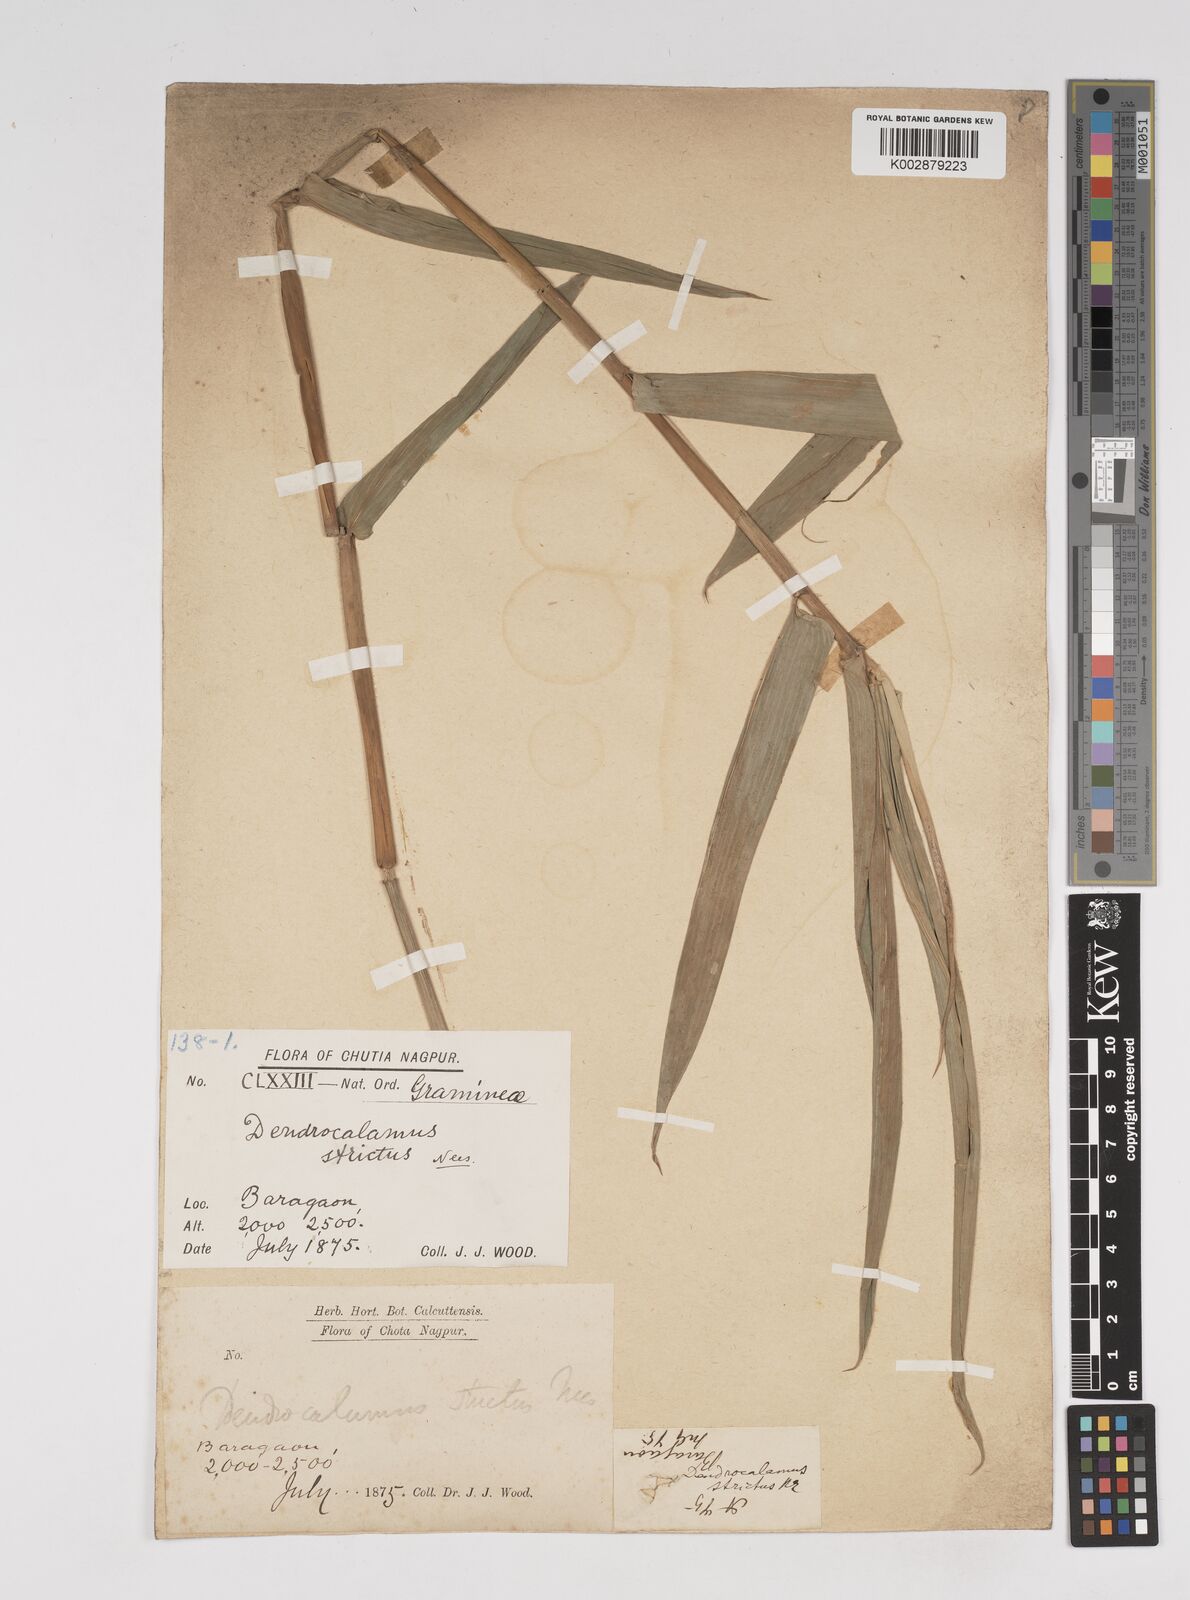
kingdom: Plantae
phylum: Tracheophyta
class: Liliopsida
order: Poales
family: Poaceae
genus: Dendrocalamus
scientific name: Dendrocalamus strictus
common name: Male bamboo
